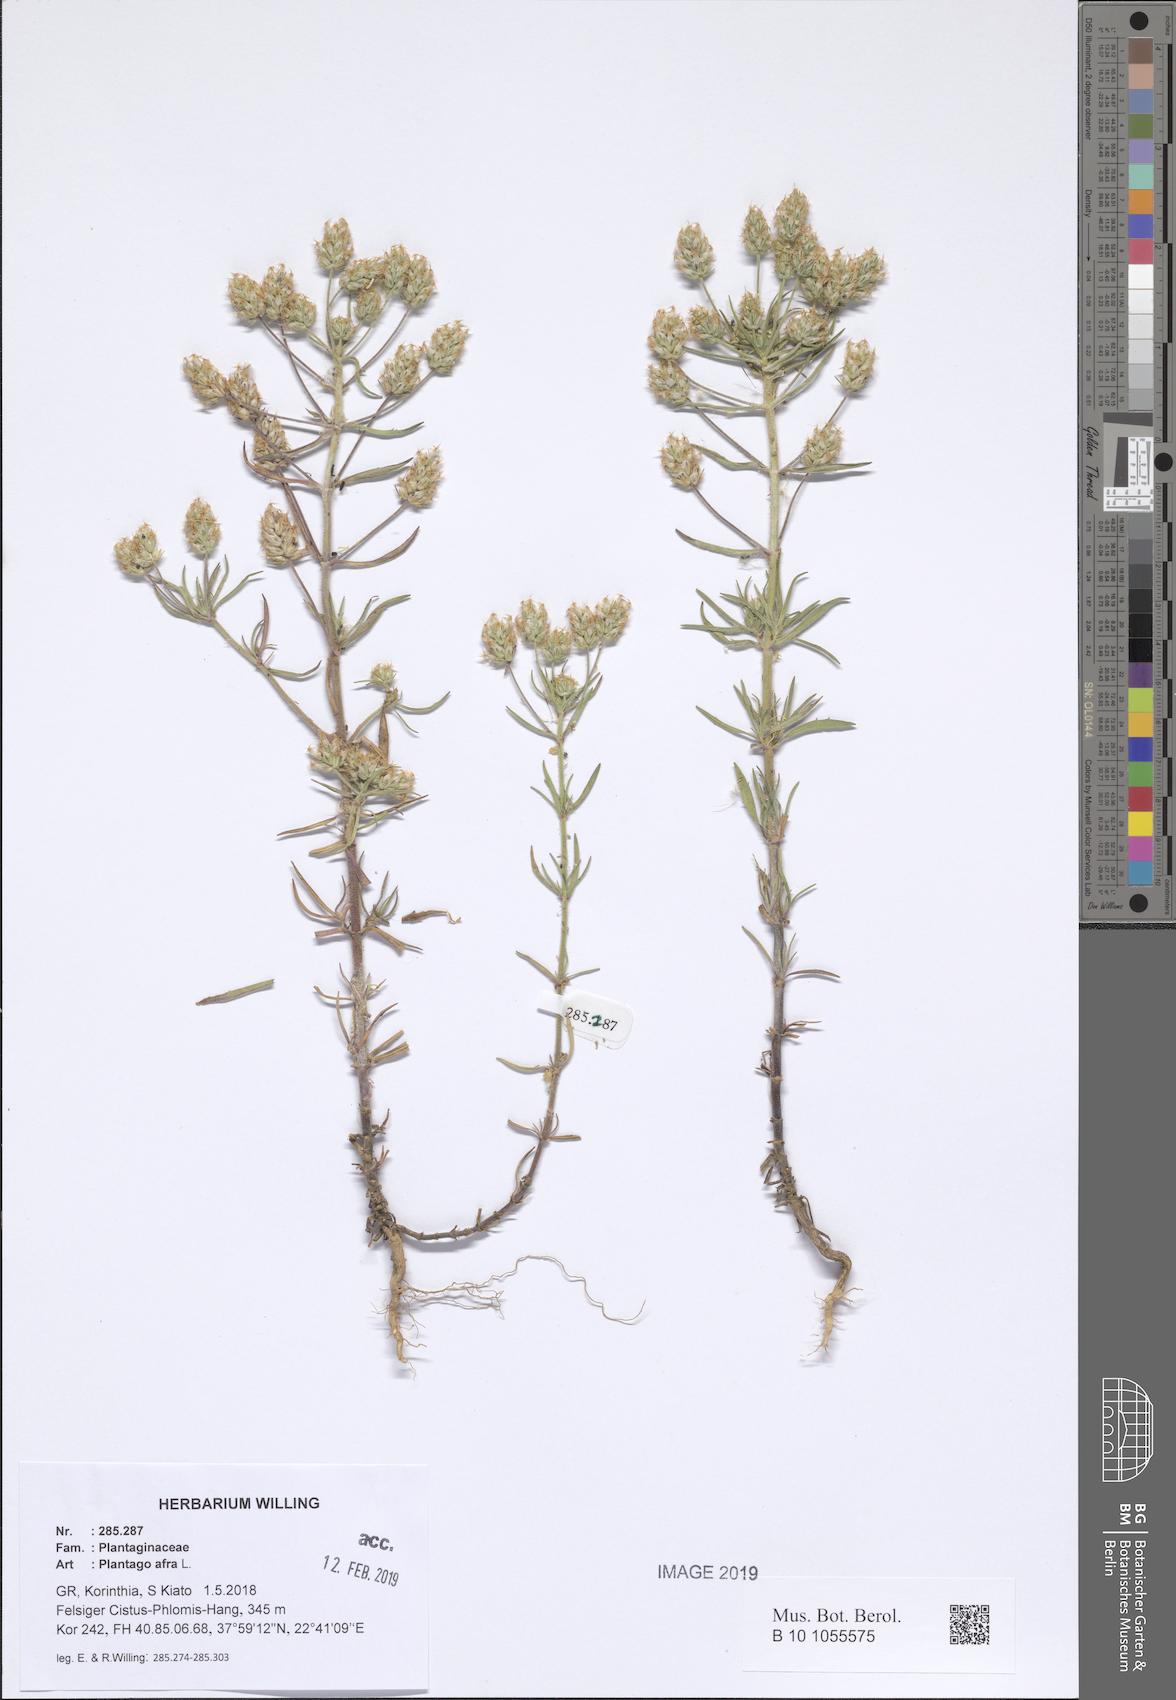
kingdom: Plantae
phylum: Tracheophyta
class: Magnoliopsida
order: Lamiales
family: Plantaginaceae
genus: Plantago
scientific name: Plantago afra
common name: Glandular plantain
